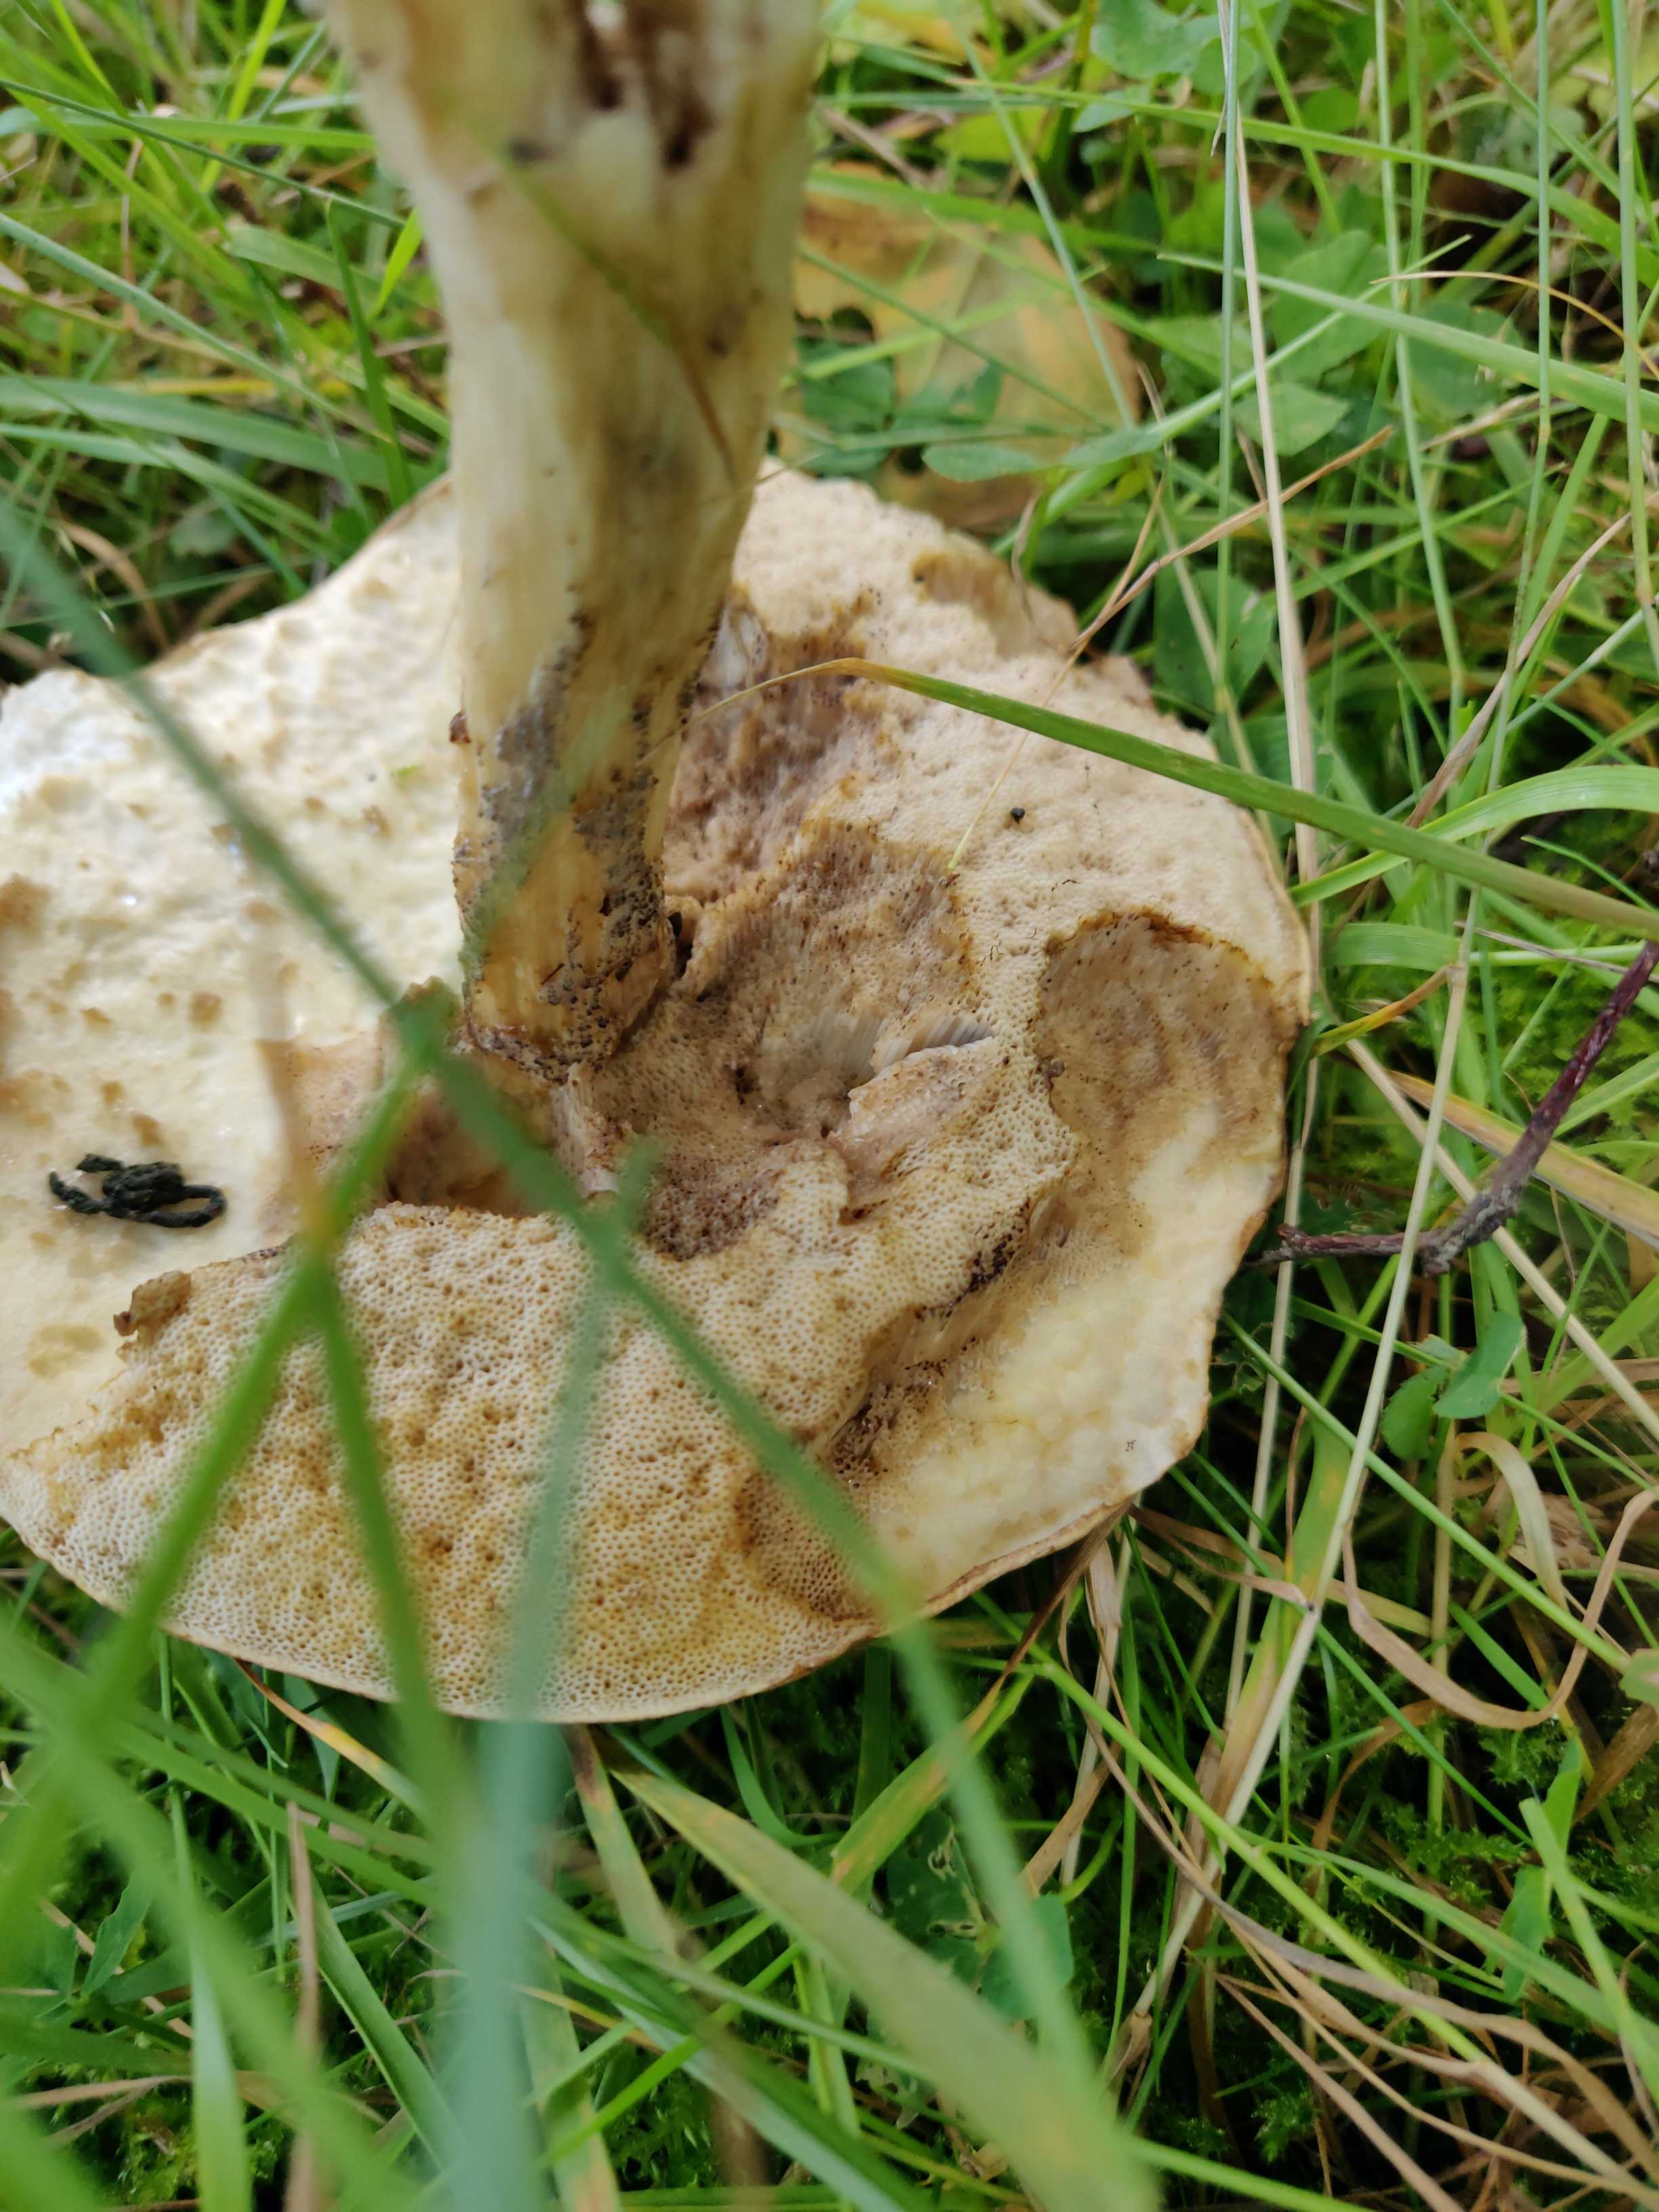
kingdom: Fungi
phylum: Basidiomycota
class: Agaricomycetes
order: Boletales
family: Boletaceae
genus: Leccinum
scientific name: Leccinum
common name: skælrørhat
